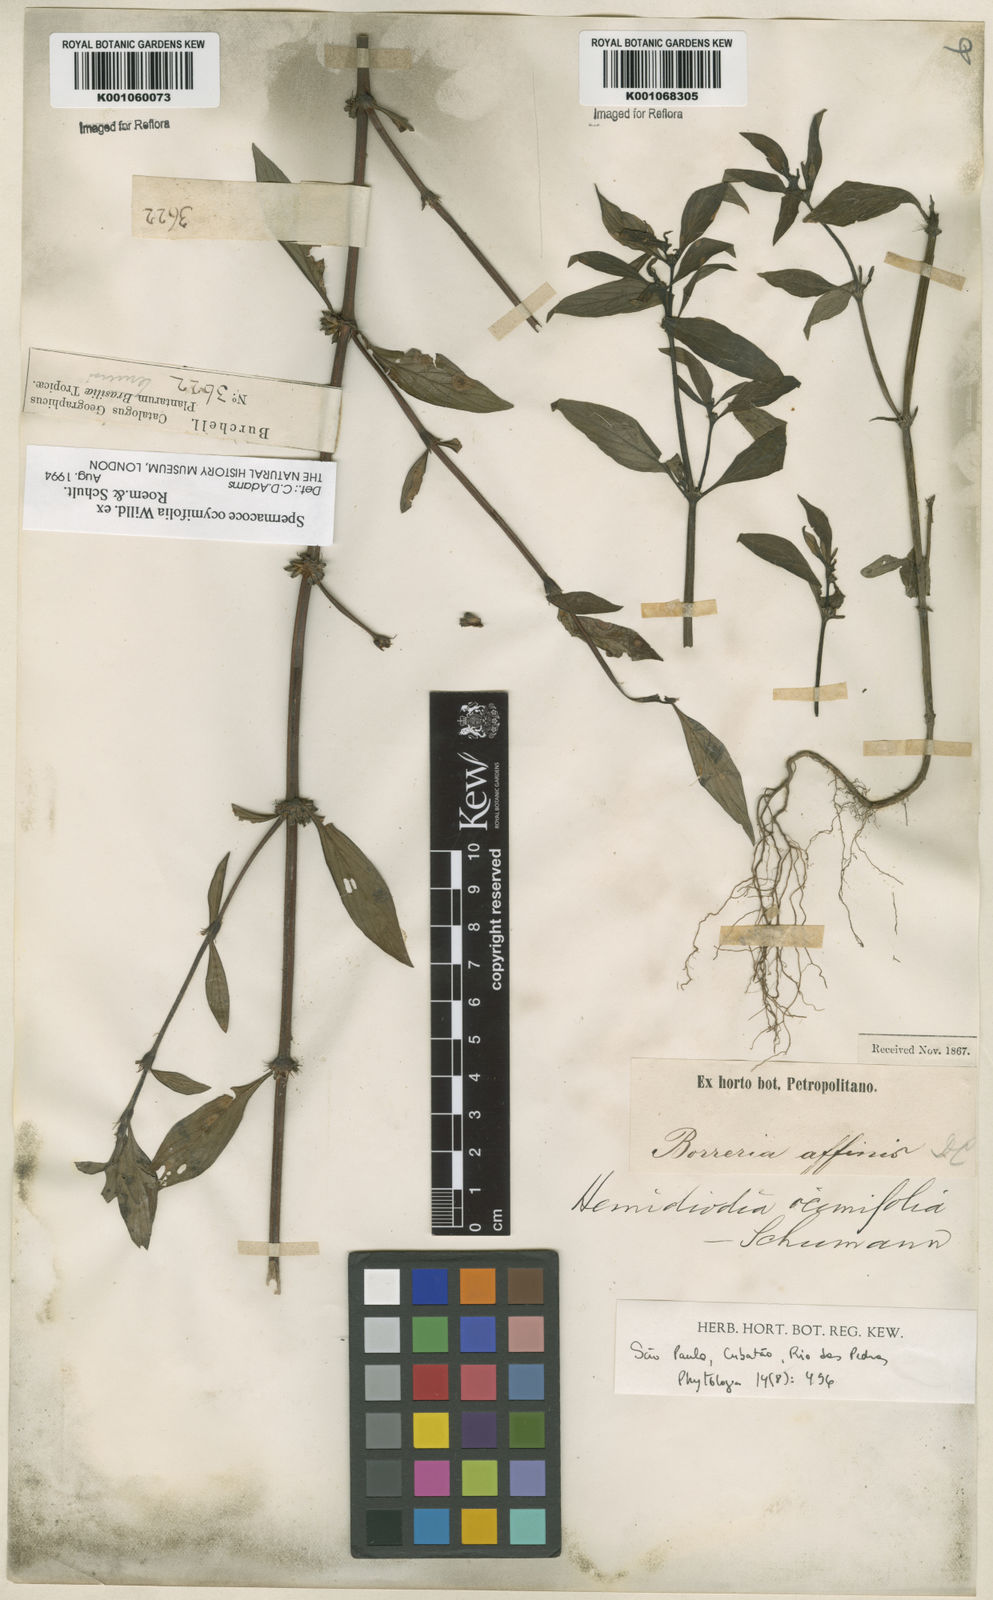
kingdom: Plantae
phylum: Tracheophyta
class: Magnoliopsida
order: Gentianales
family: Rubiaceae
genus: Spermacoce
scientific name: Spermacoce
